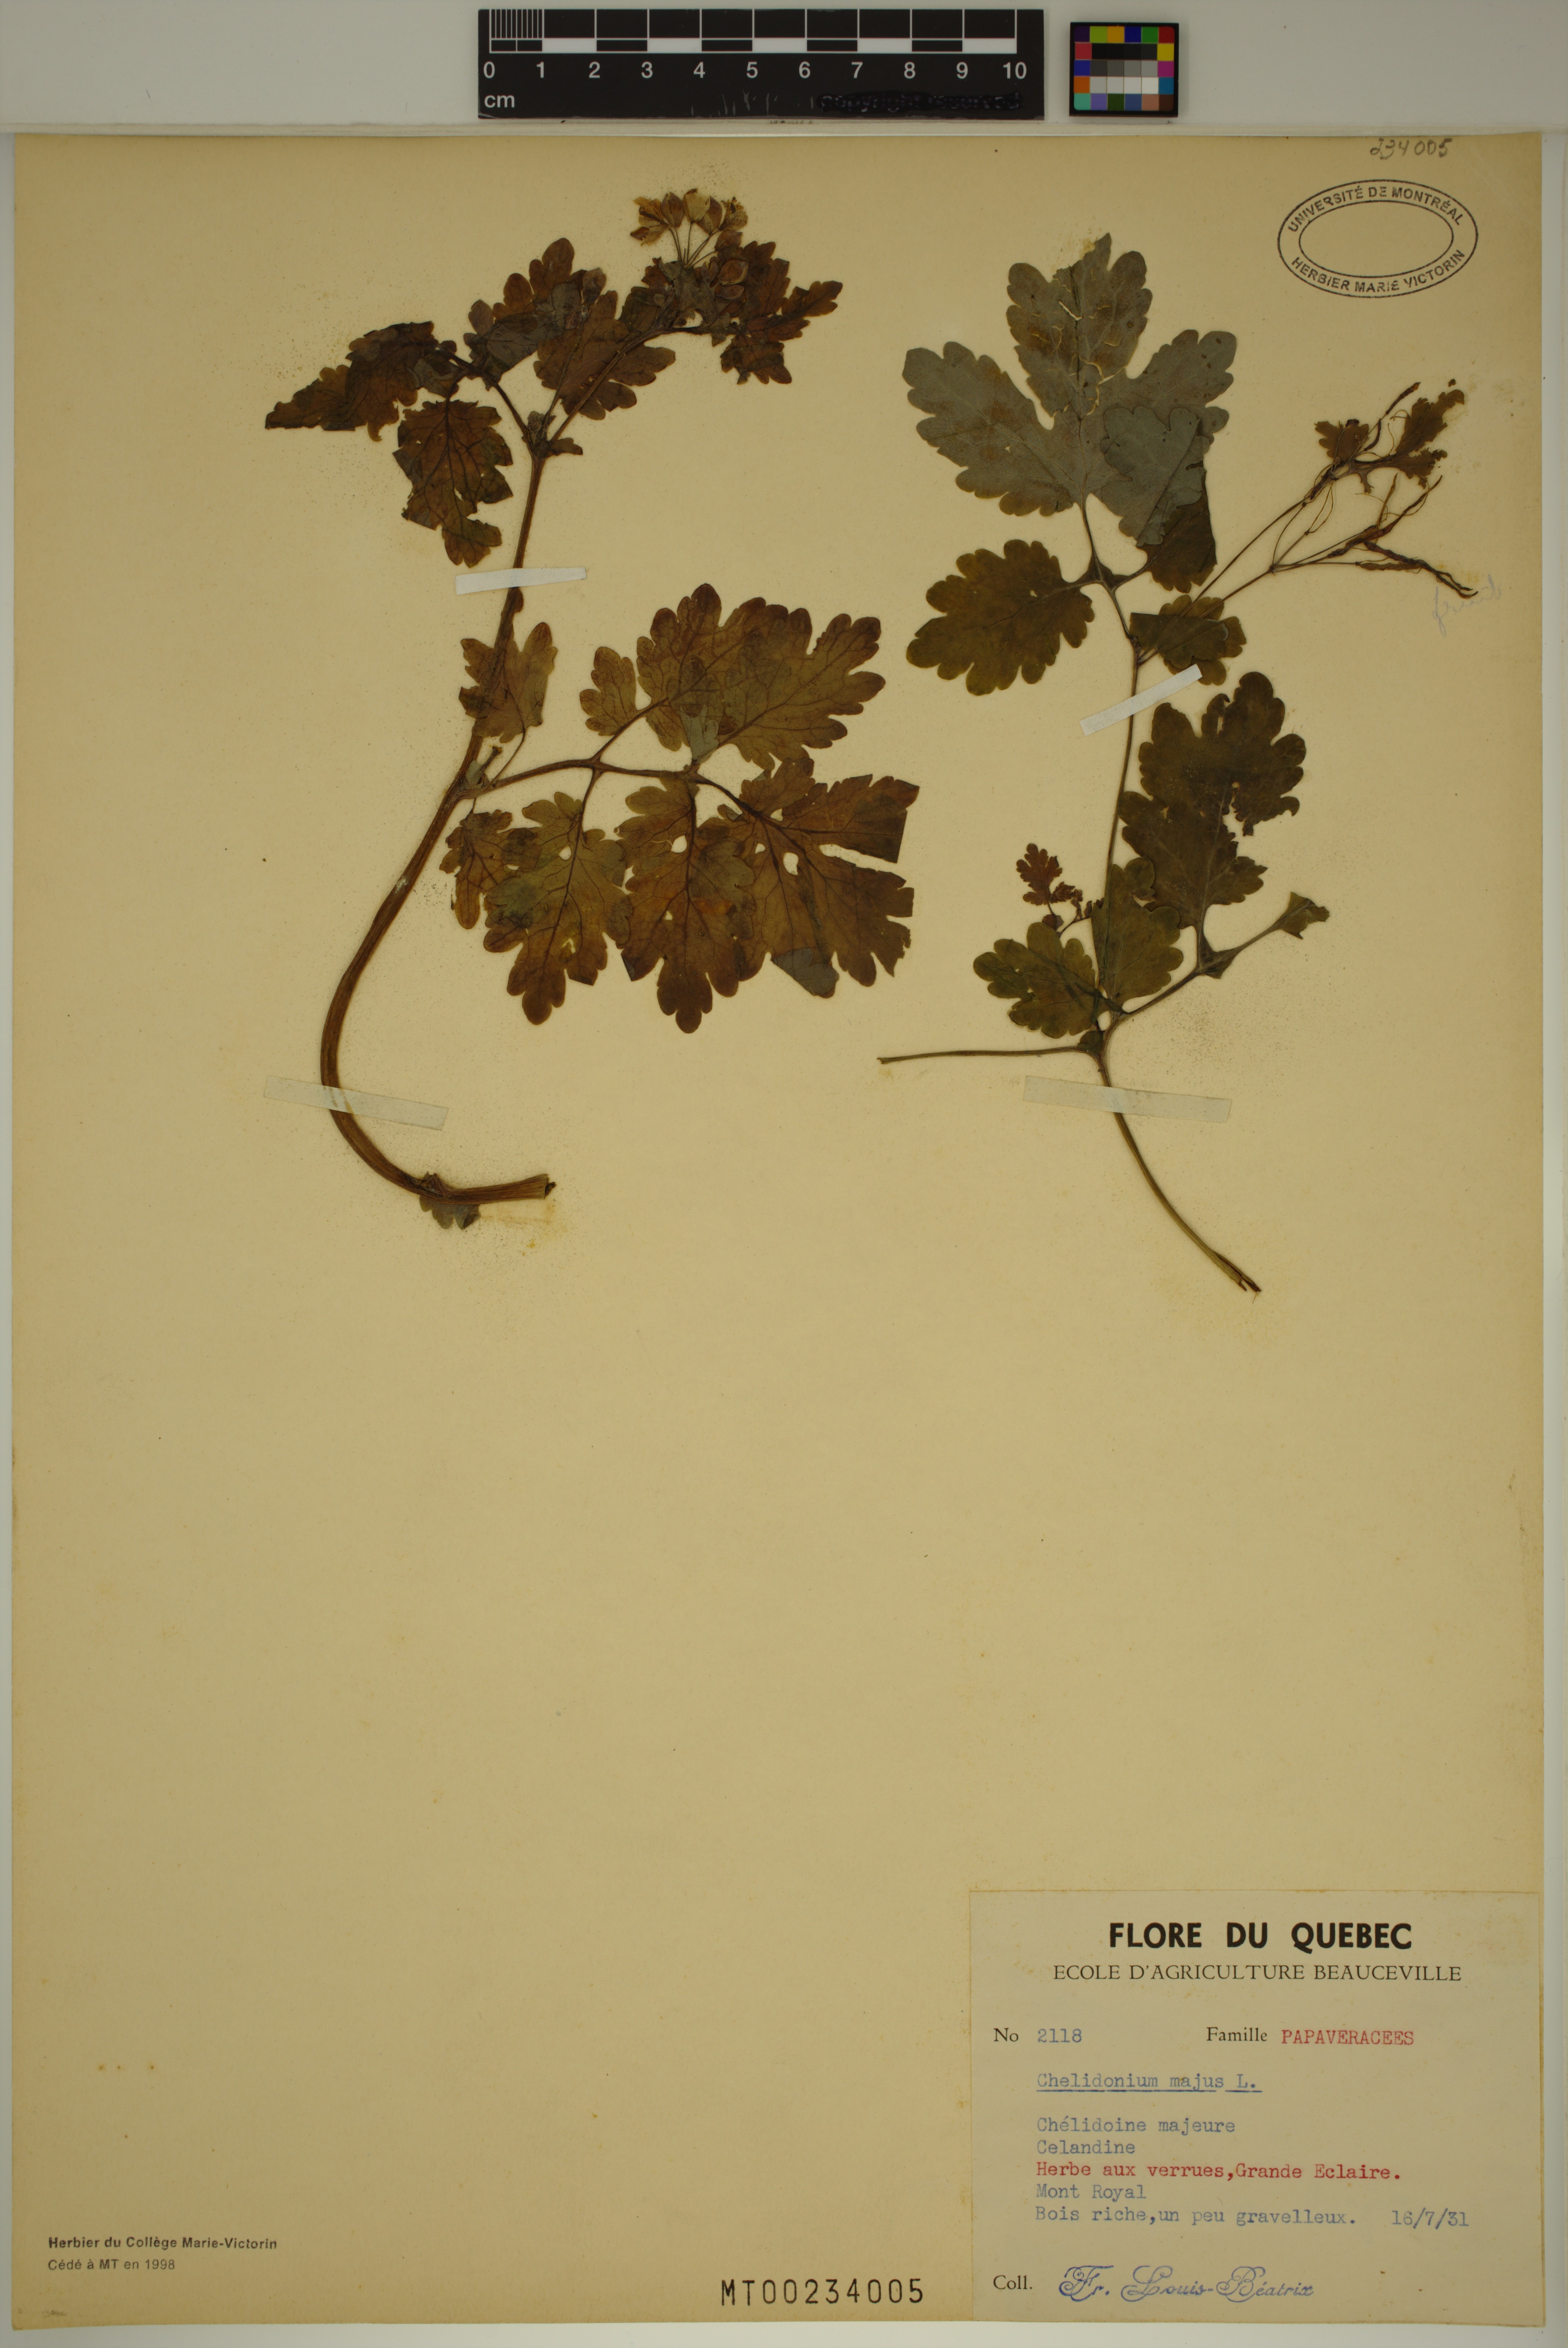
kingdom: Plantae
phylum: Tracheophyta
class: Magnoliopsida
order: Ranunculales
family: Papaveraceae
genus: Chelidonium
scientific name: Chelidonium majus
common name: Greater celandine
